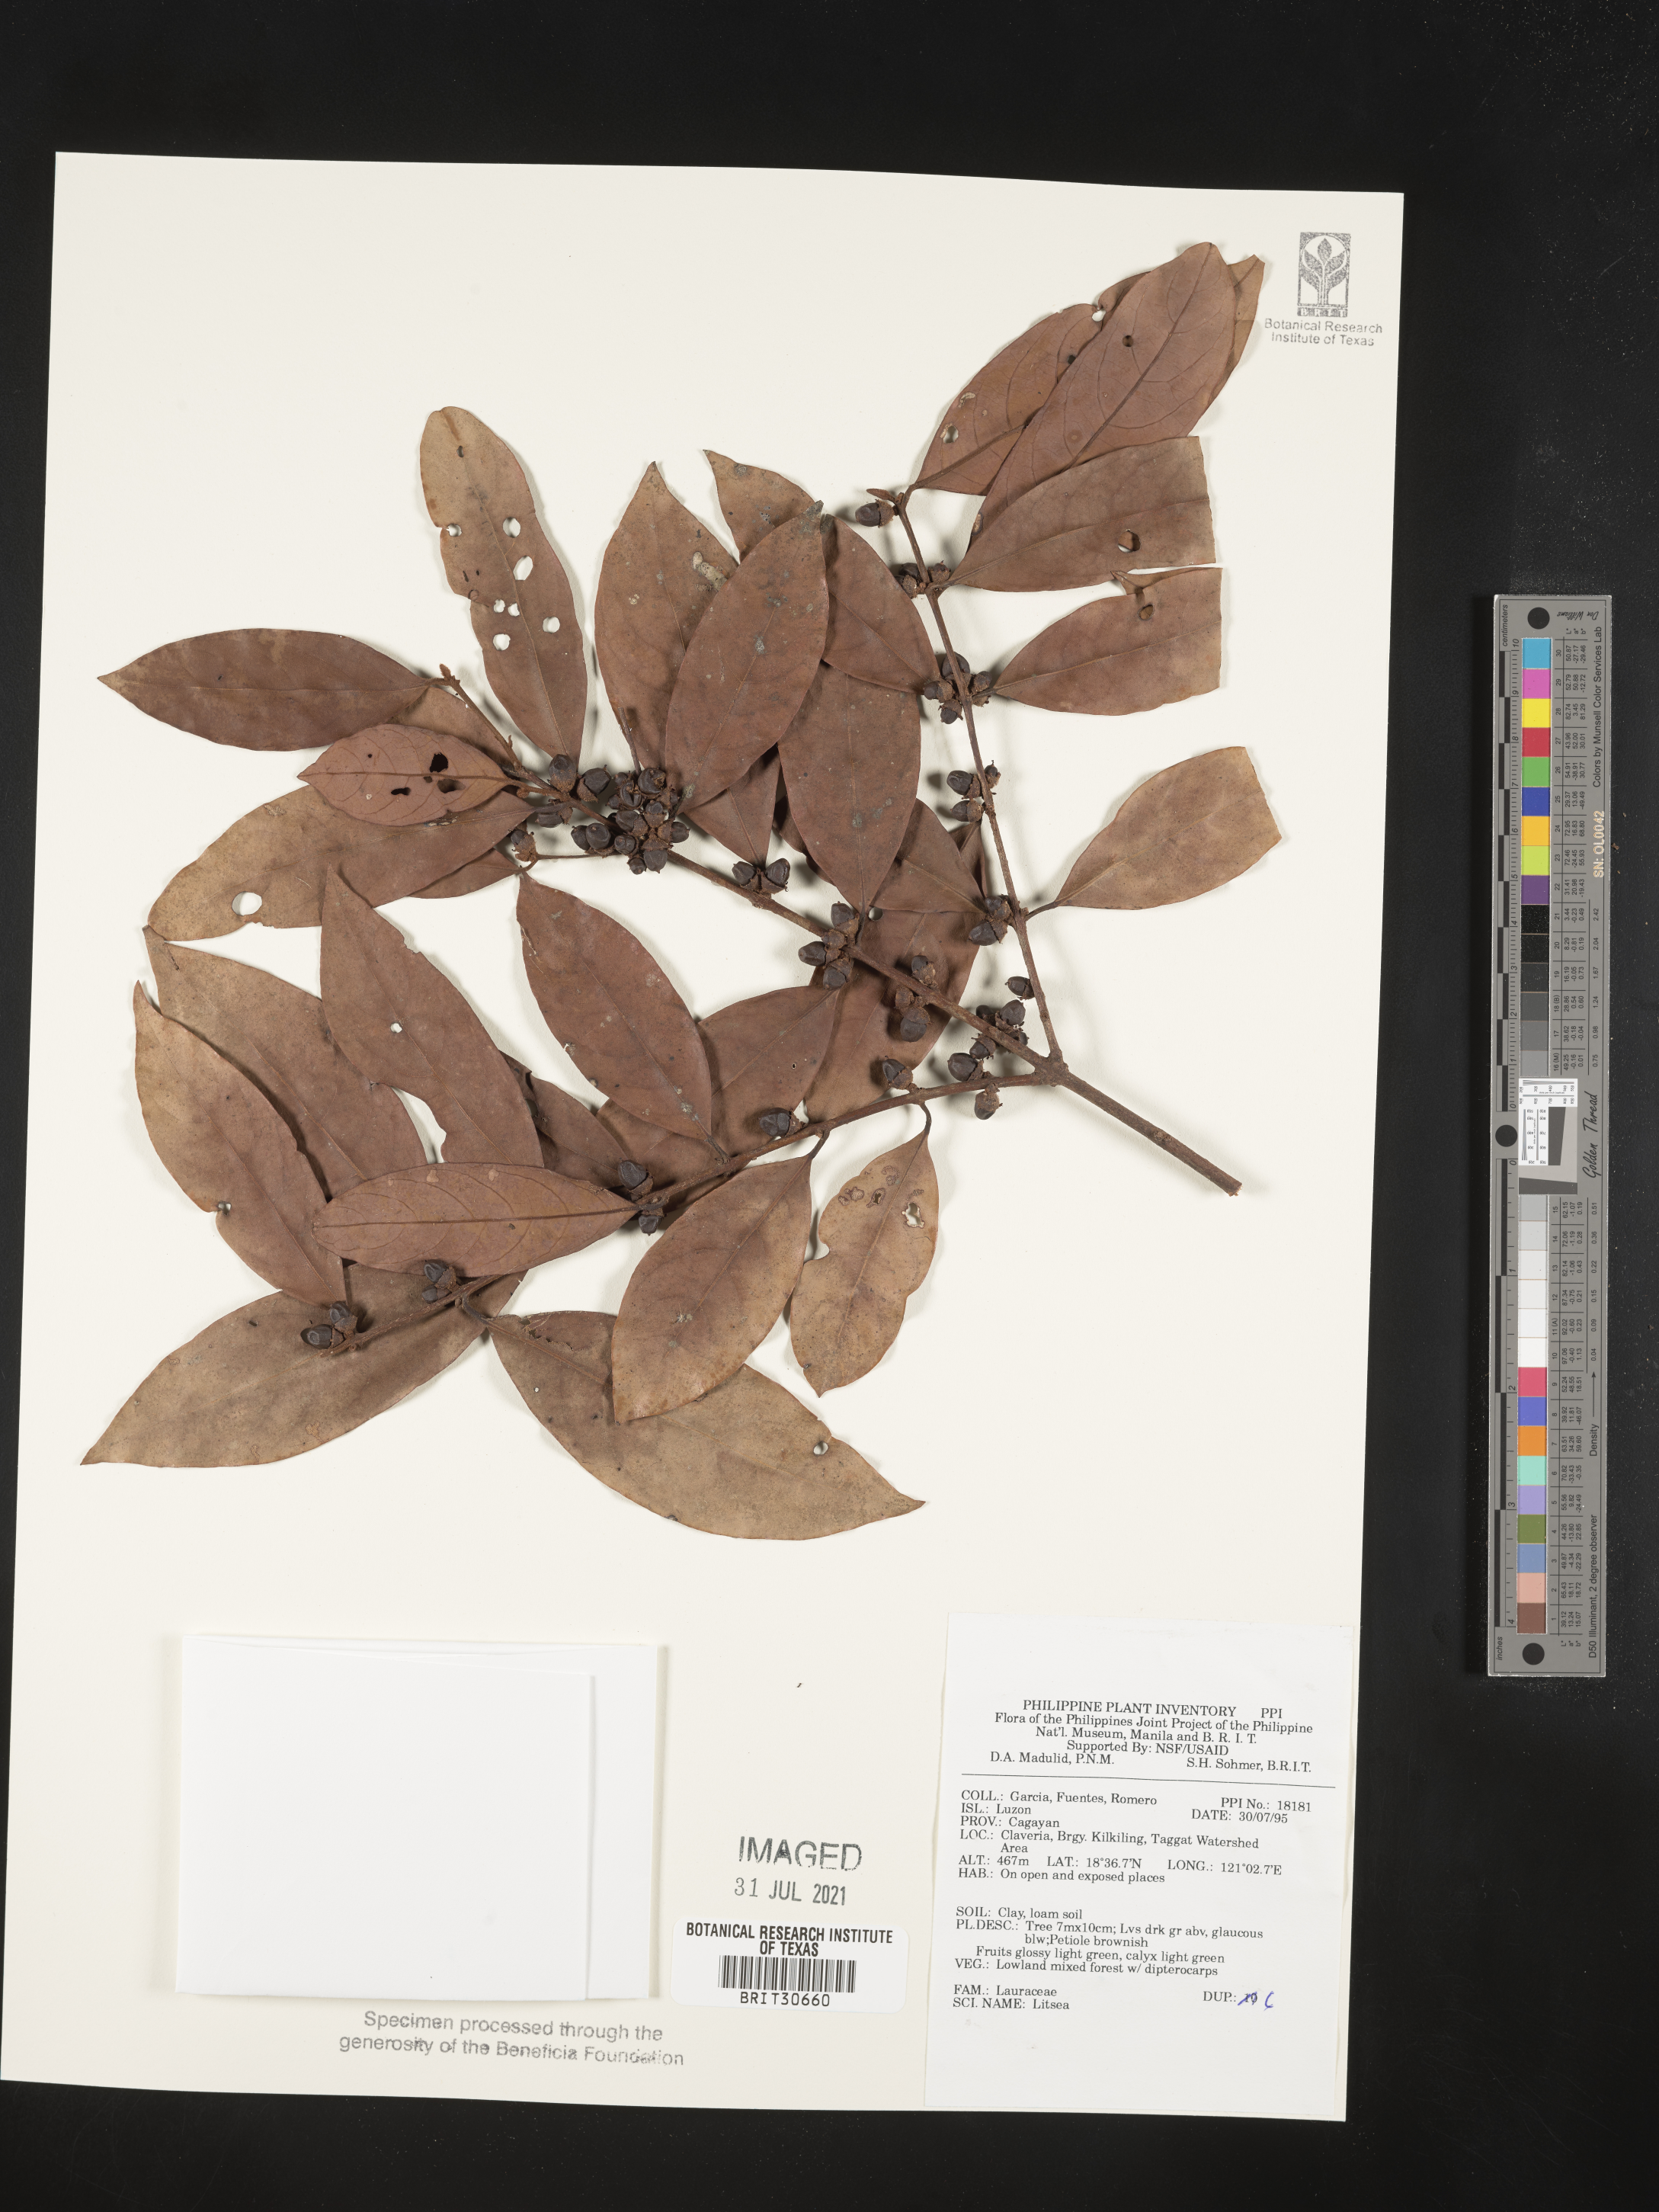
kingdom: Plantae
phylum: Tracheophyta
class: Magnoliopsida
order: Laurales
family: Lauraceae
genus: Litsea
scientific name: Litsea
